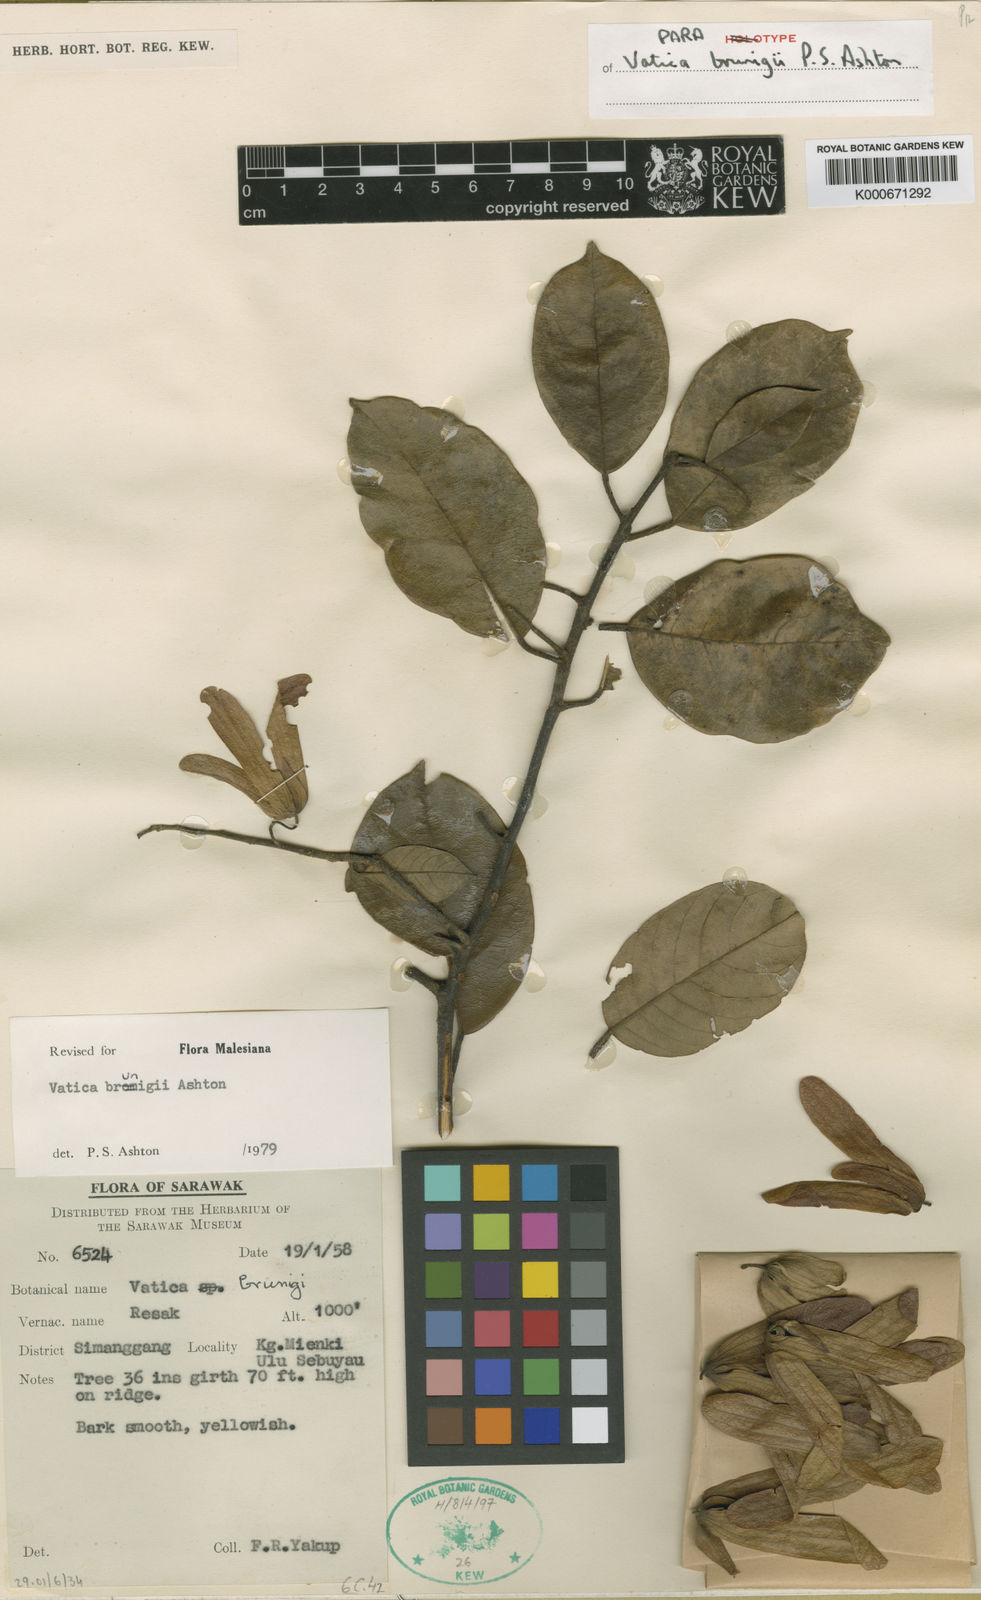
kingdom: Plantae
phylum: Tracheophyta
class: Magnoliopsida
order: Malvales
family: Dipterocarpaceae
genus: Vatica
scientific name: Vatica brunigii
